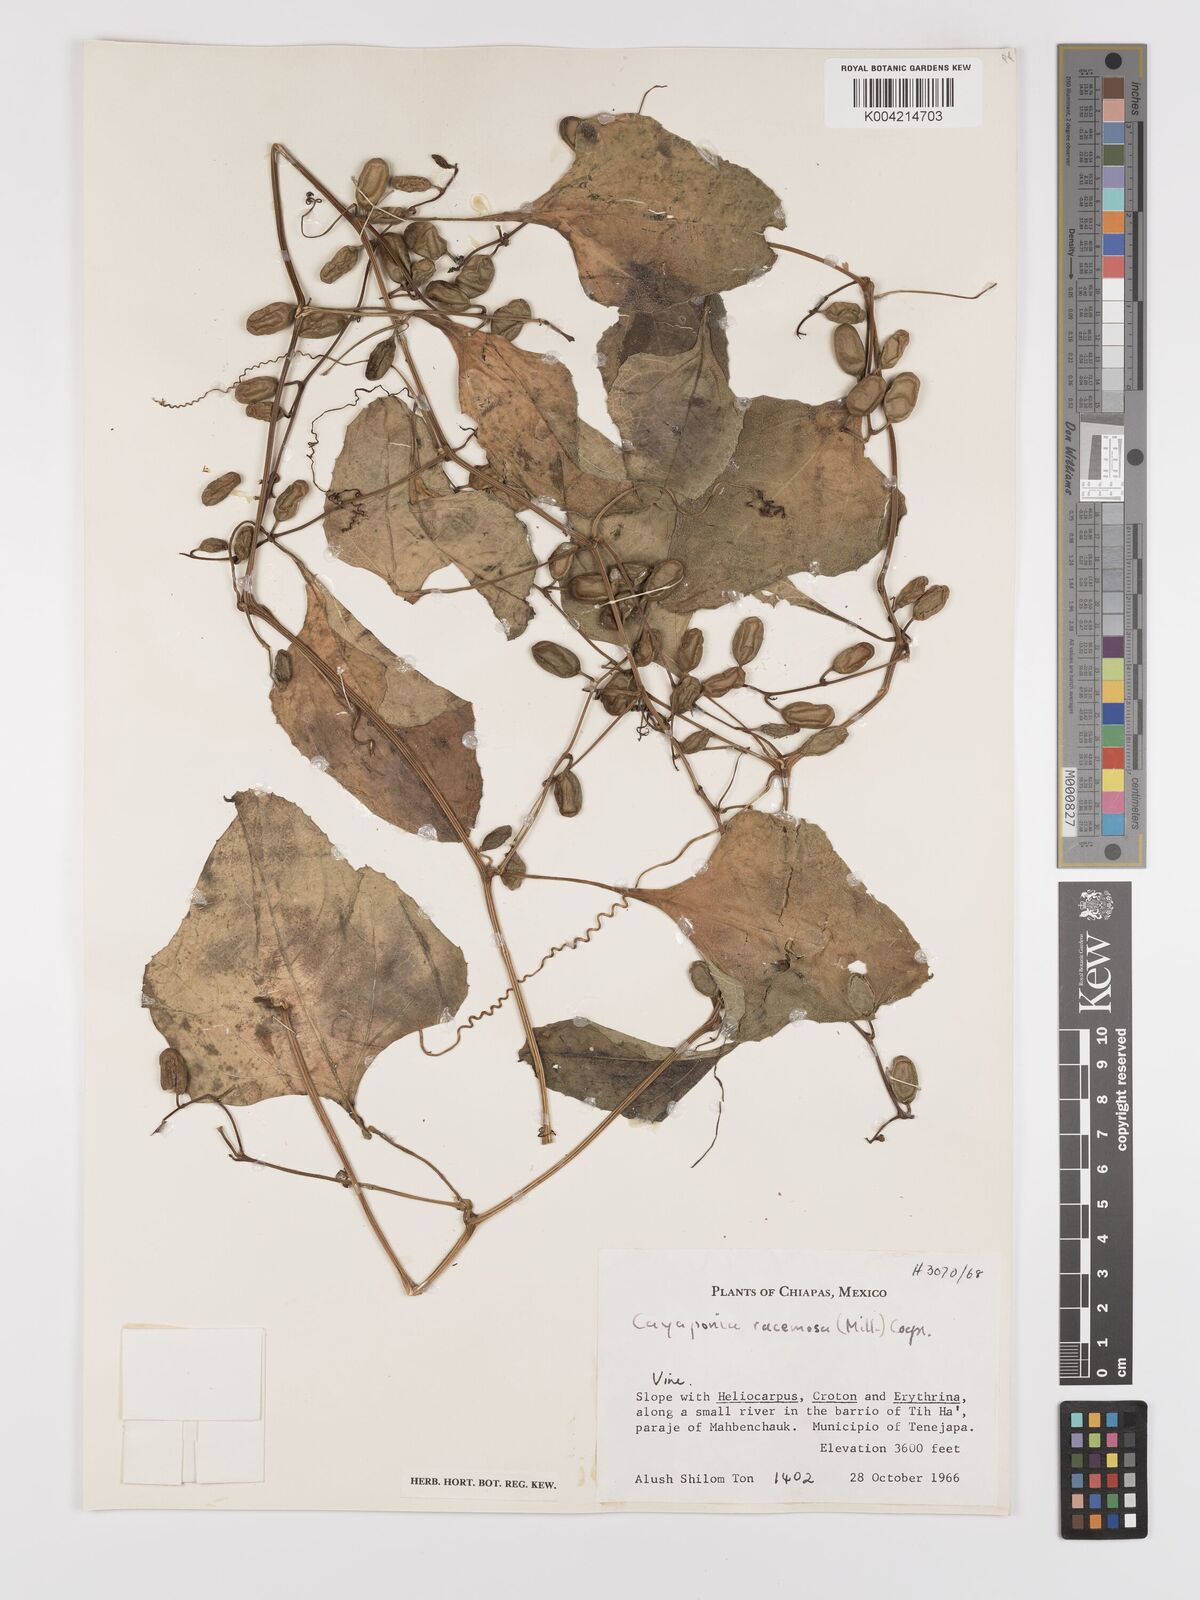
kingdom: Plantae
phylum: Tracheophyta
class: Magnoliopsida
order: Cucurbitales
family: Cucurbitaceae
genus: Cayaponia
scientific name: Cayaponia racemosa
